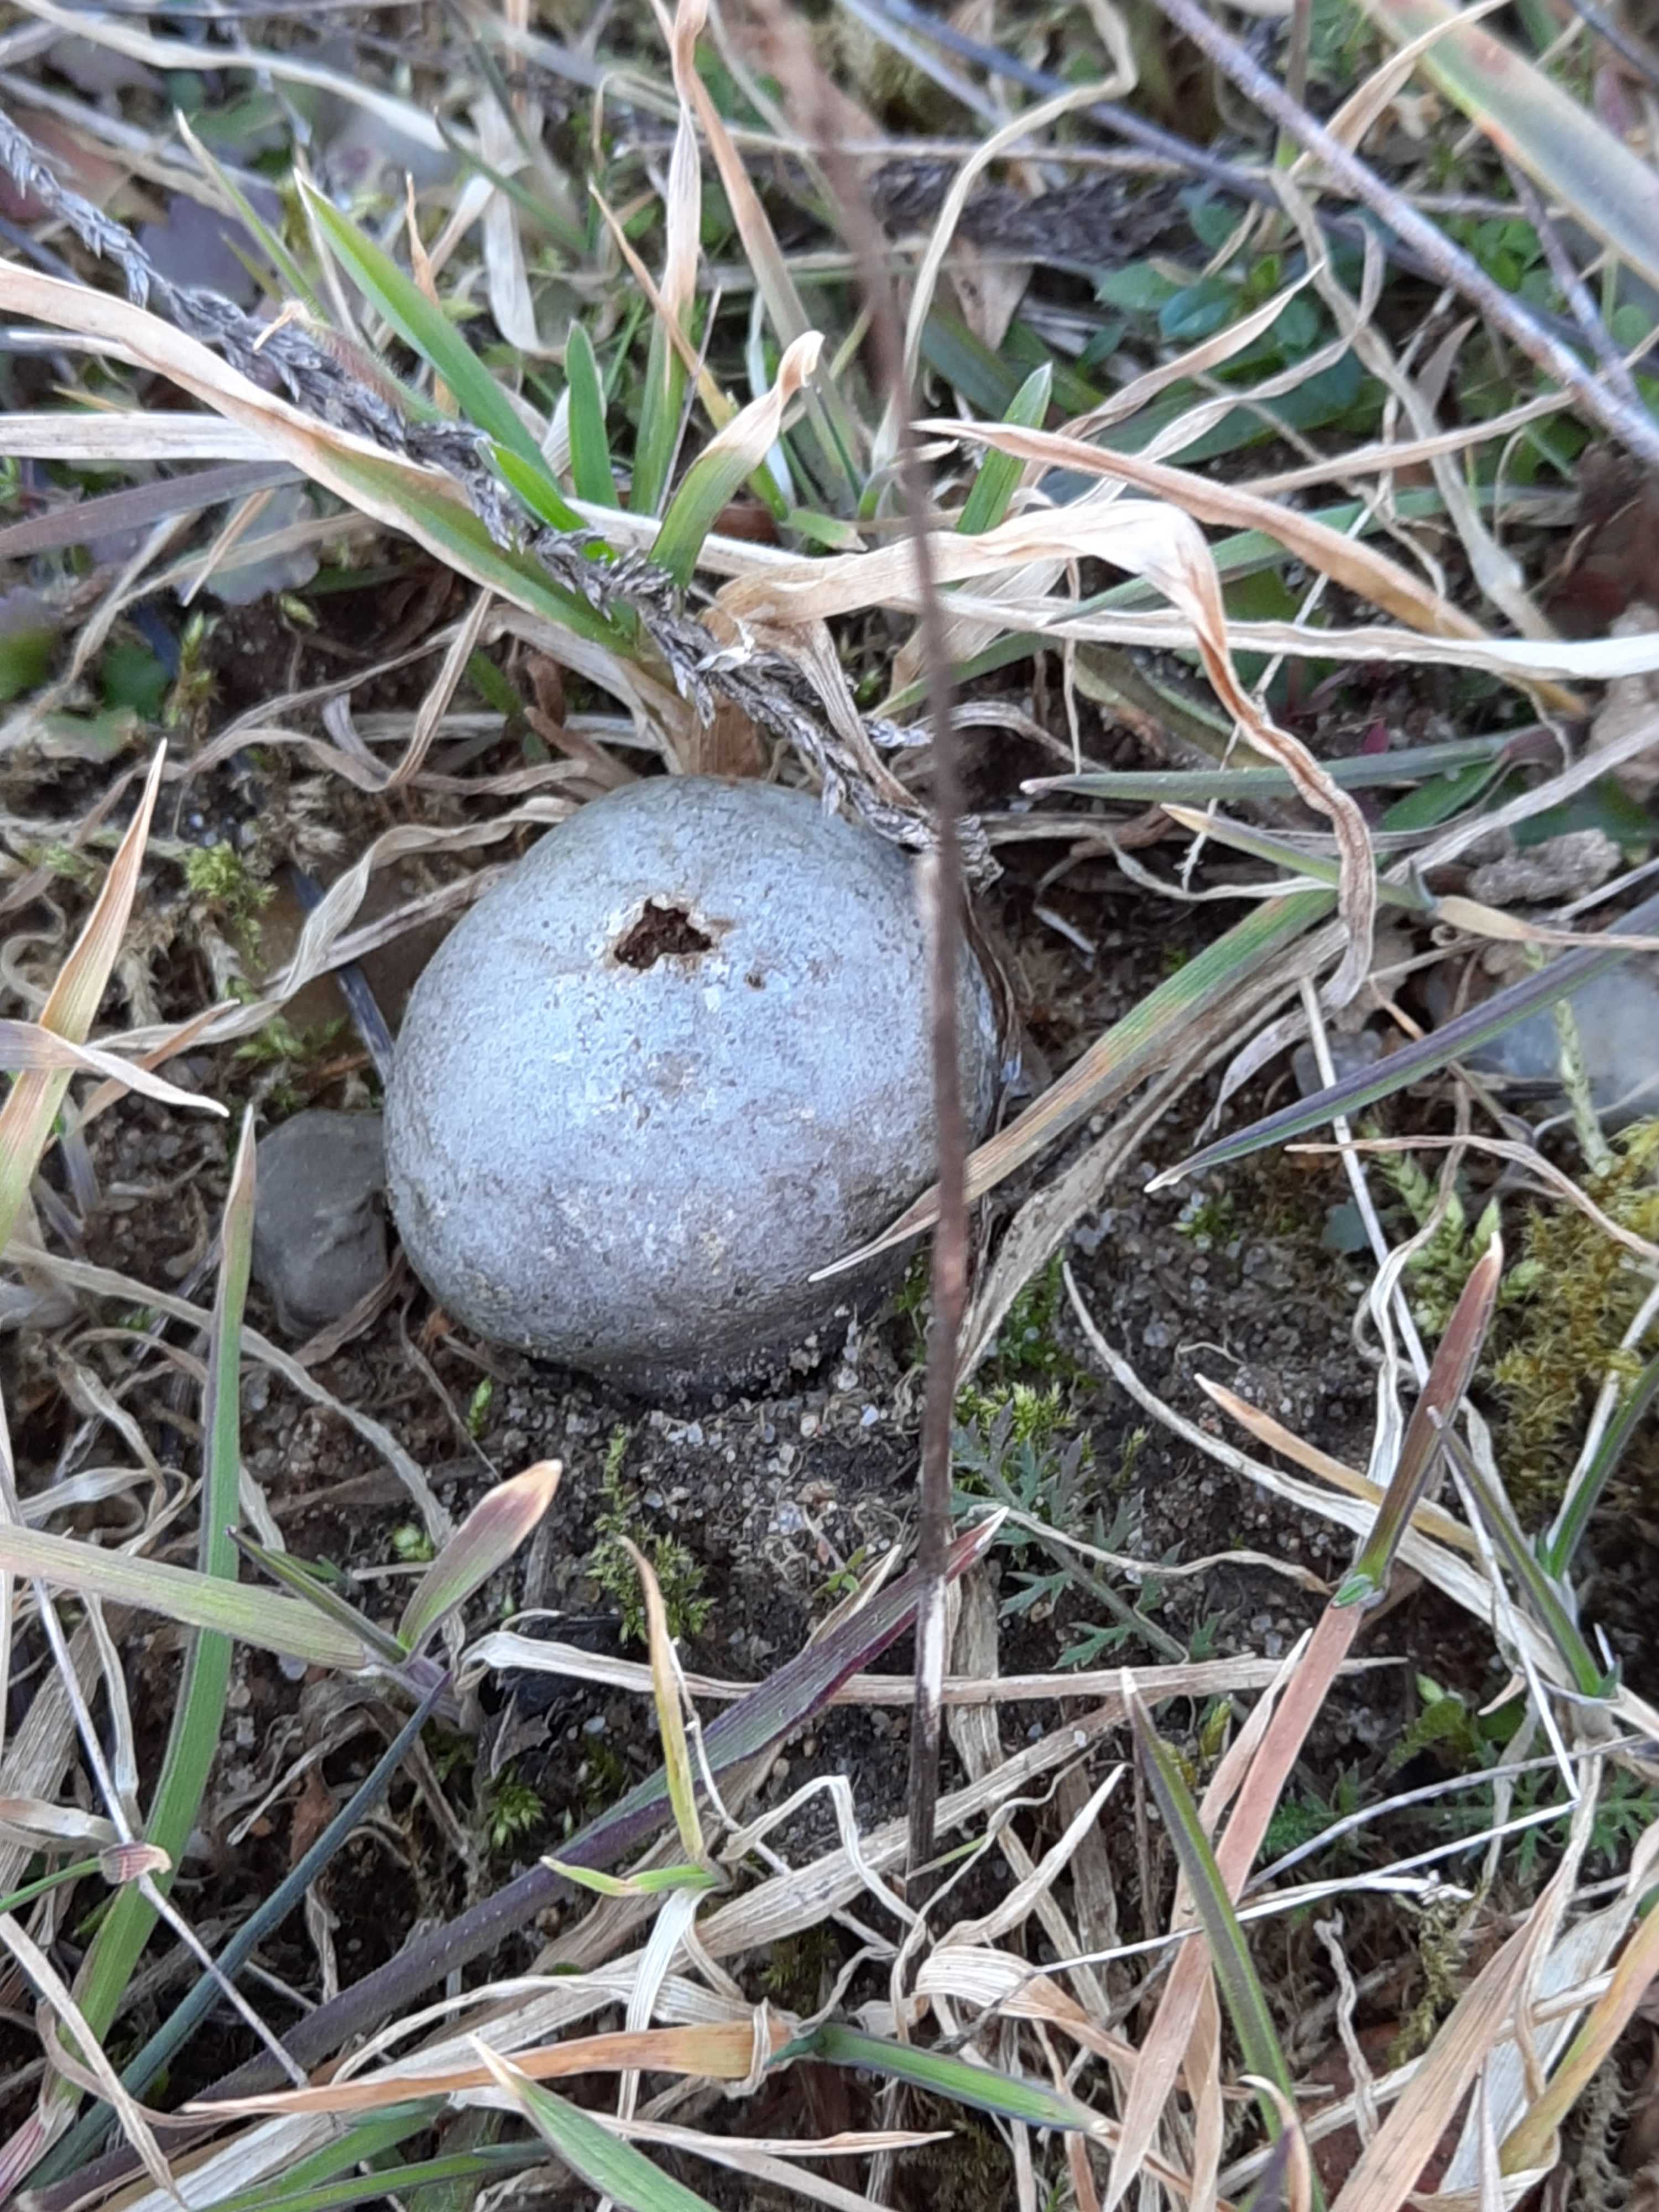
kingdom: Fungi
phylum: Basidiomycota
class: Agaricomycetes
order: Agaricales
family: Lycoperdaceae
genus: Bovista
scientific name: Bovista plumbea
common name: blygrå bovist
